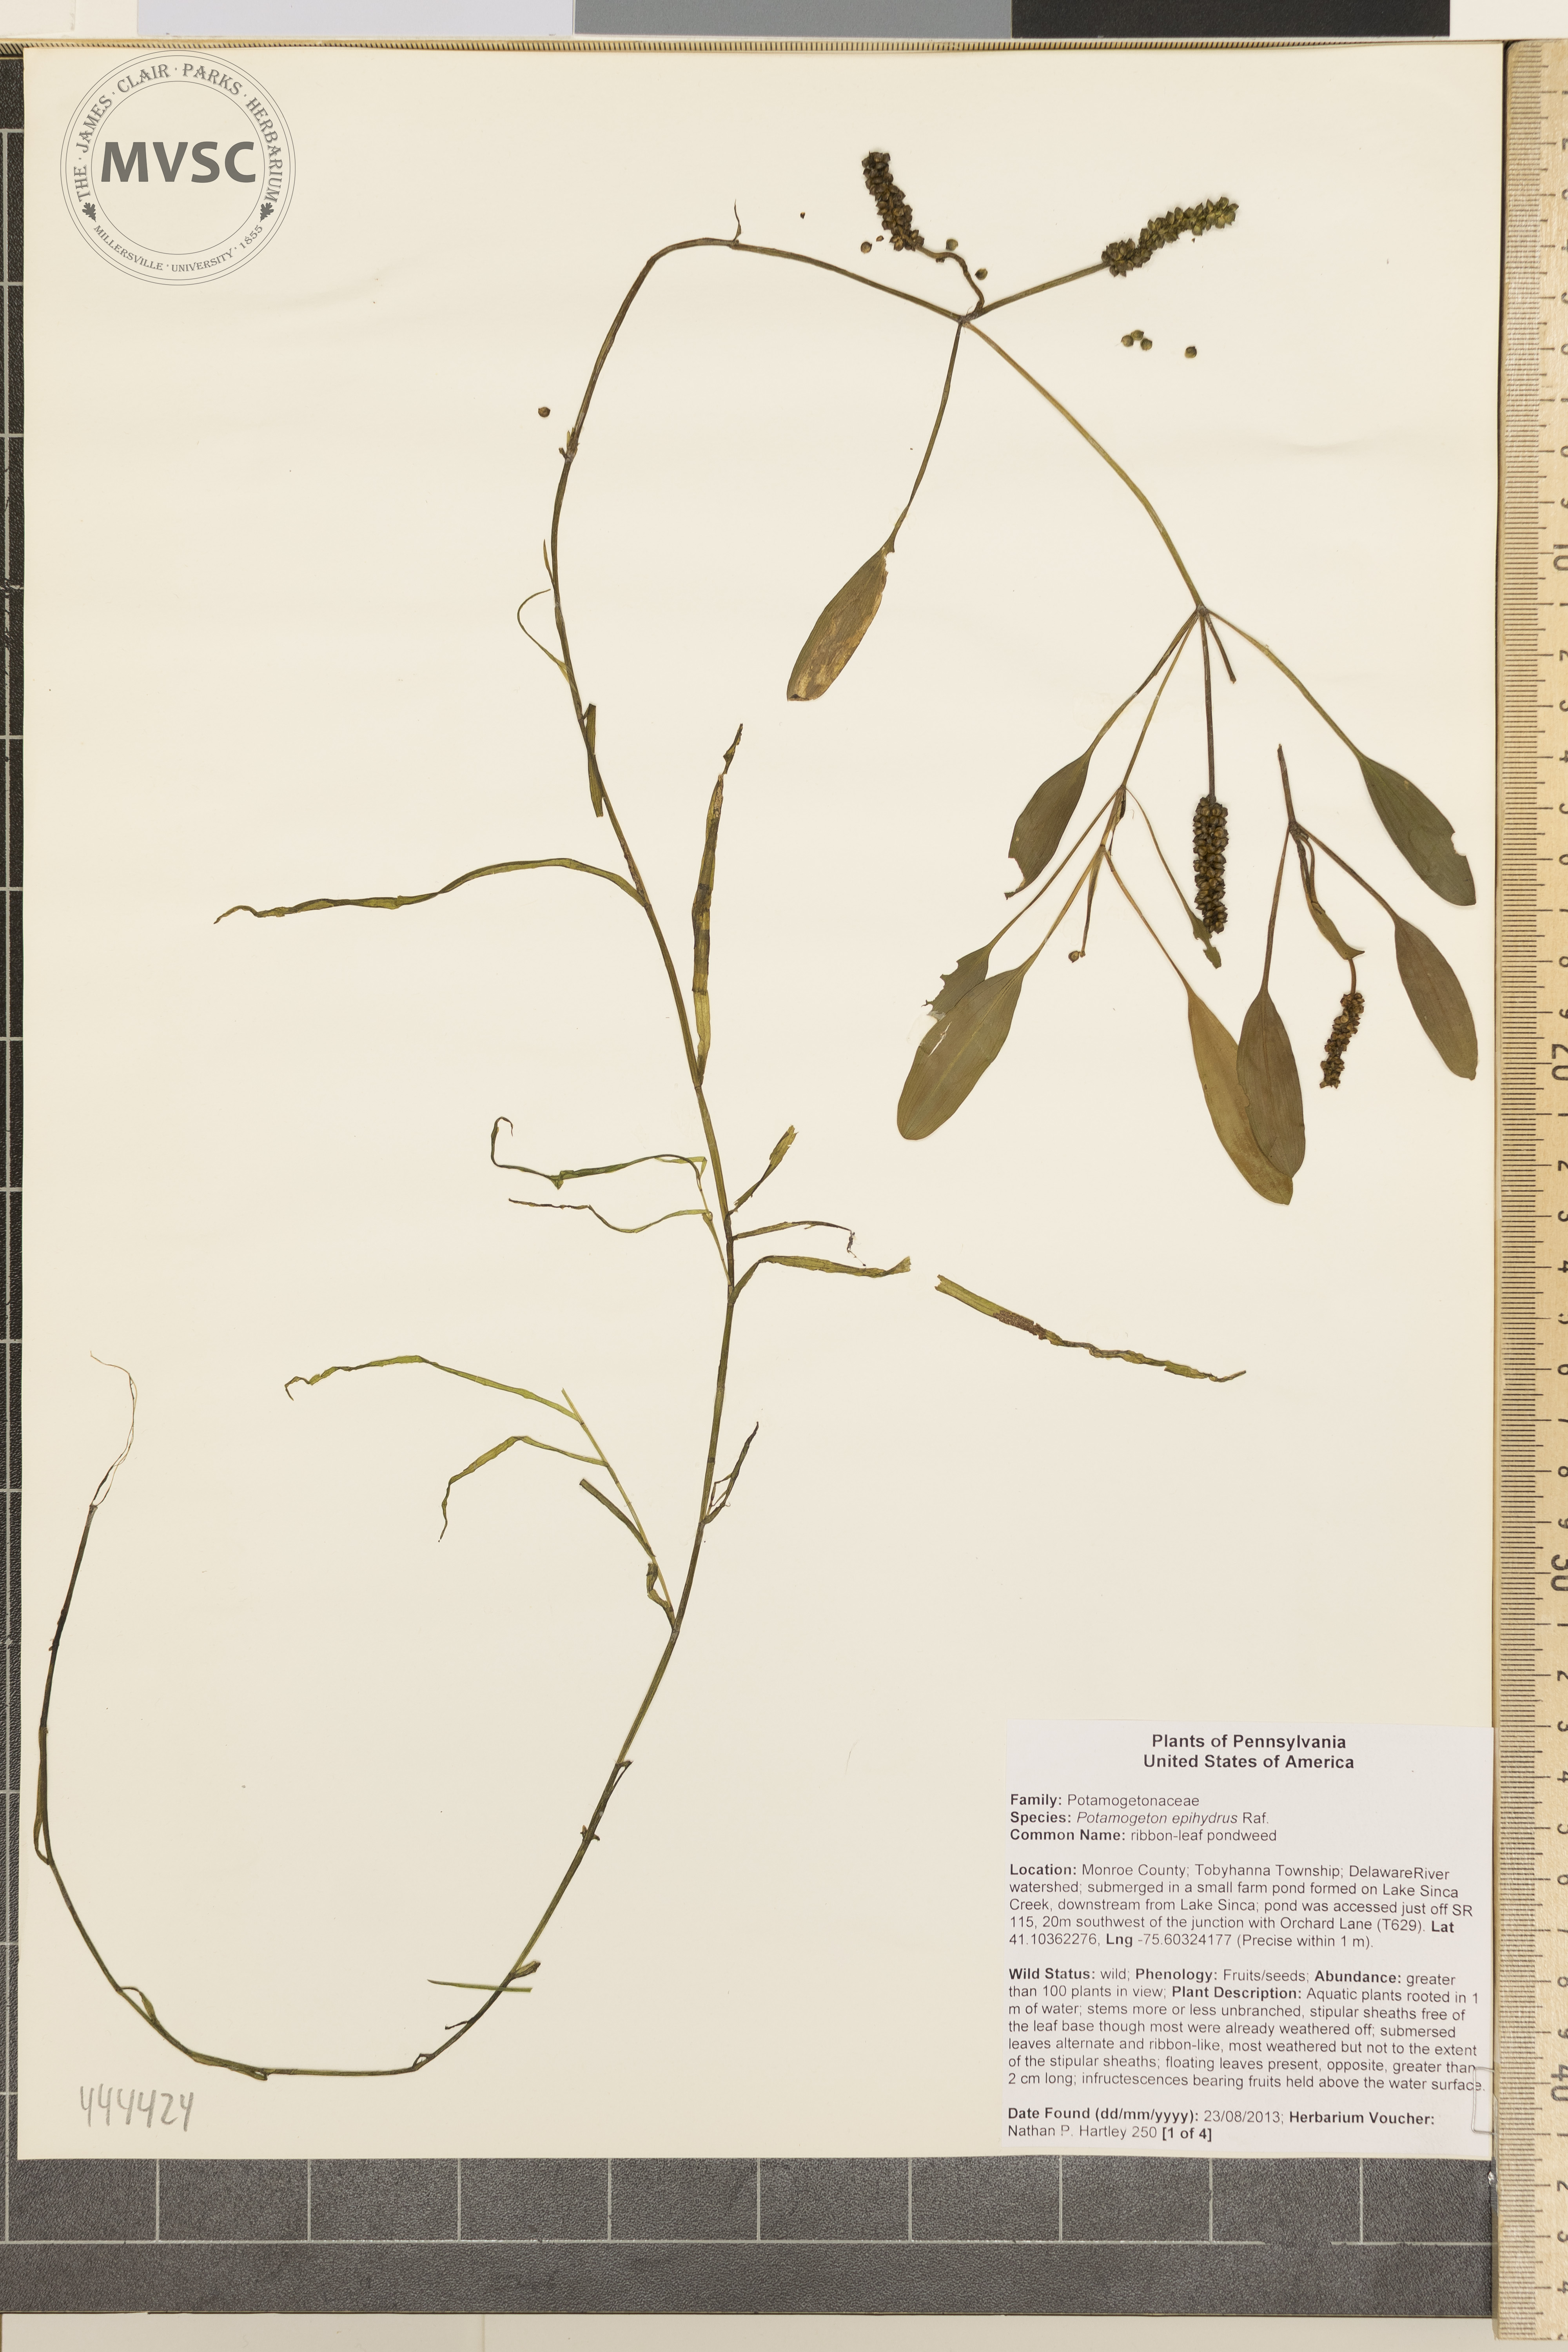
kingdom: Plantae
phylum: Tracheophyta
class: Liliopsida
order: Alismatales
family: Potamogetonaceae
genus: Potamogeton
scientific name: Potamogeton epihydrus
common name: American pondweed
